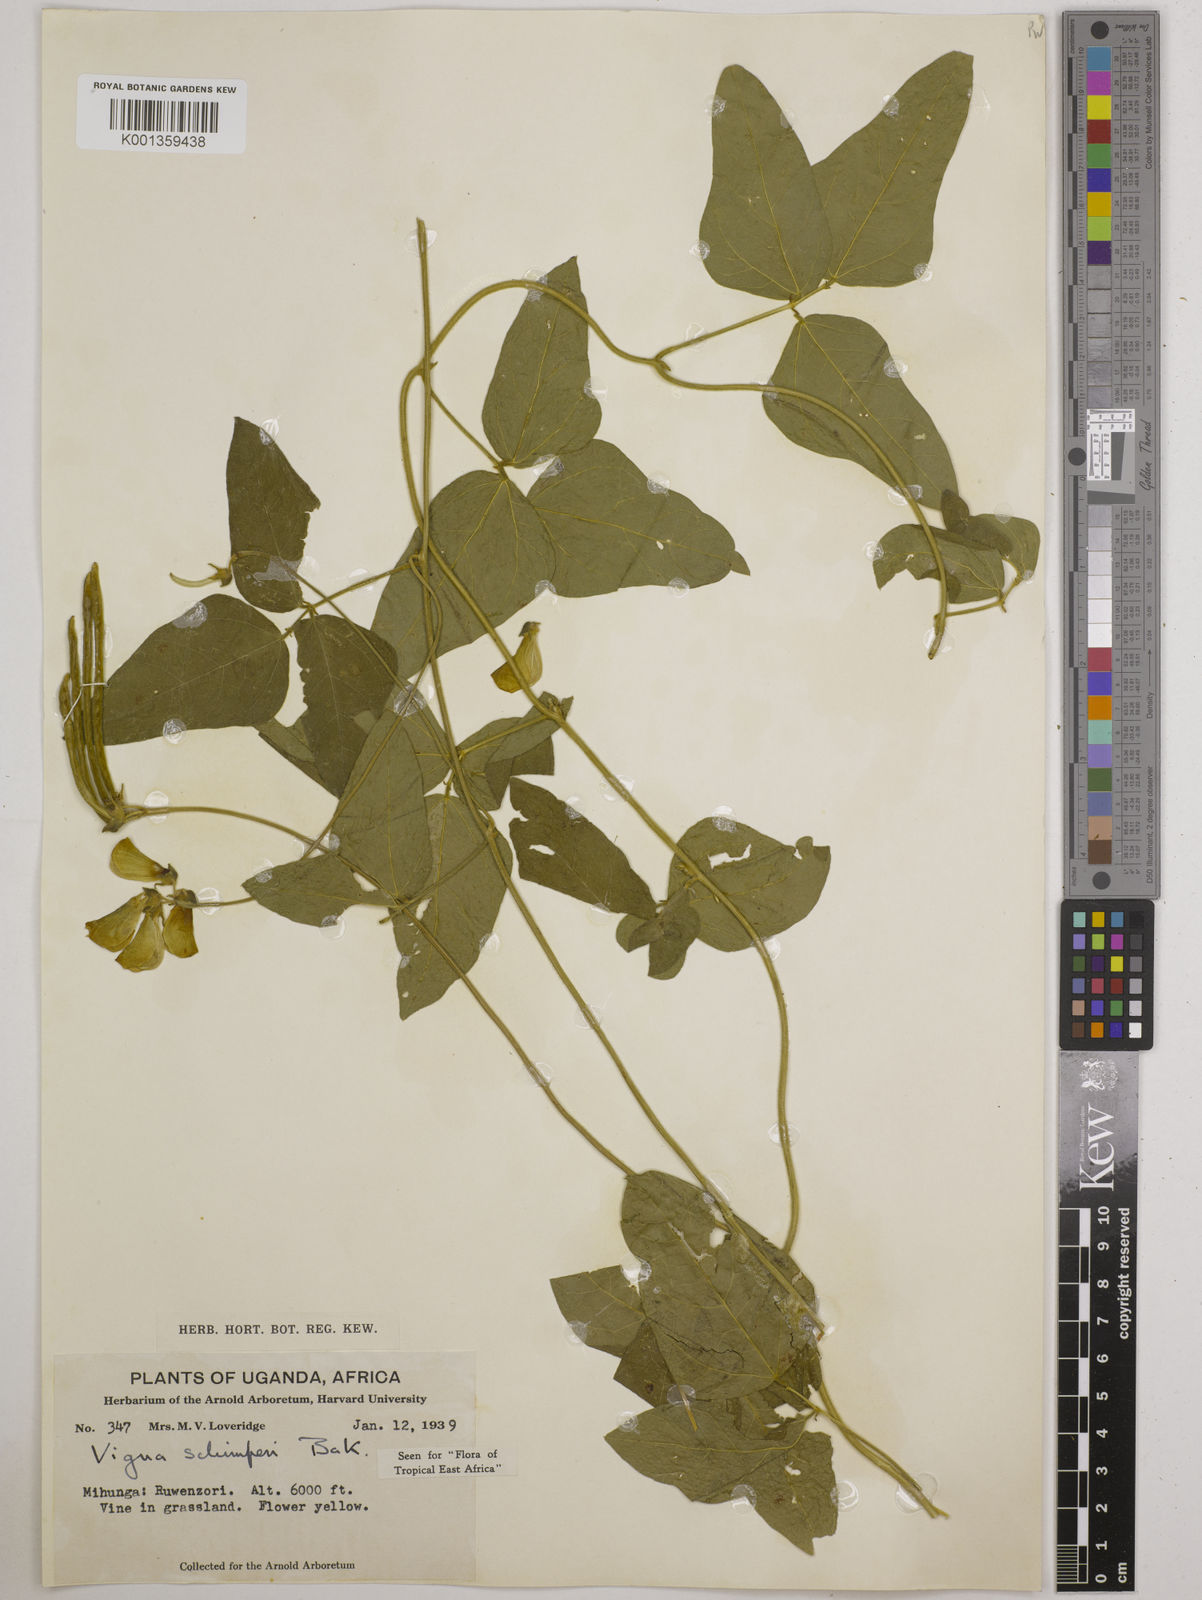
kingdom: Plantae
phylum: Tracheophyta
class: Magnoliopsida
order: Fabales
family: Fabaceae
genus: Vigna
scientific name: Vigna schimperi
